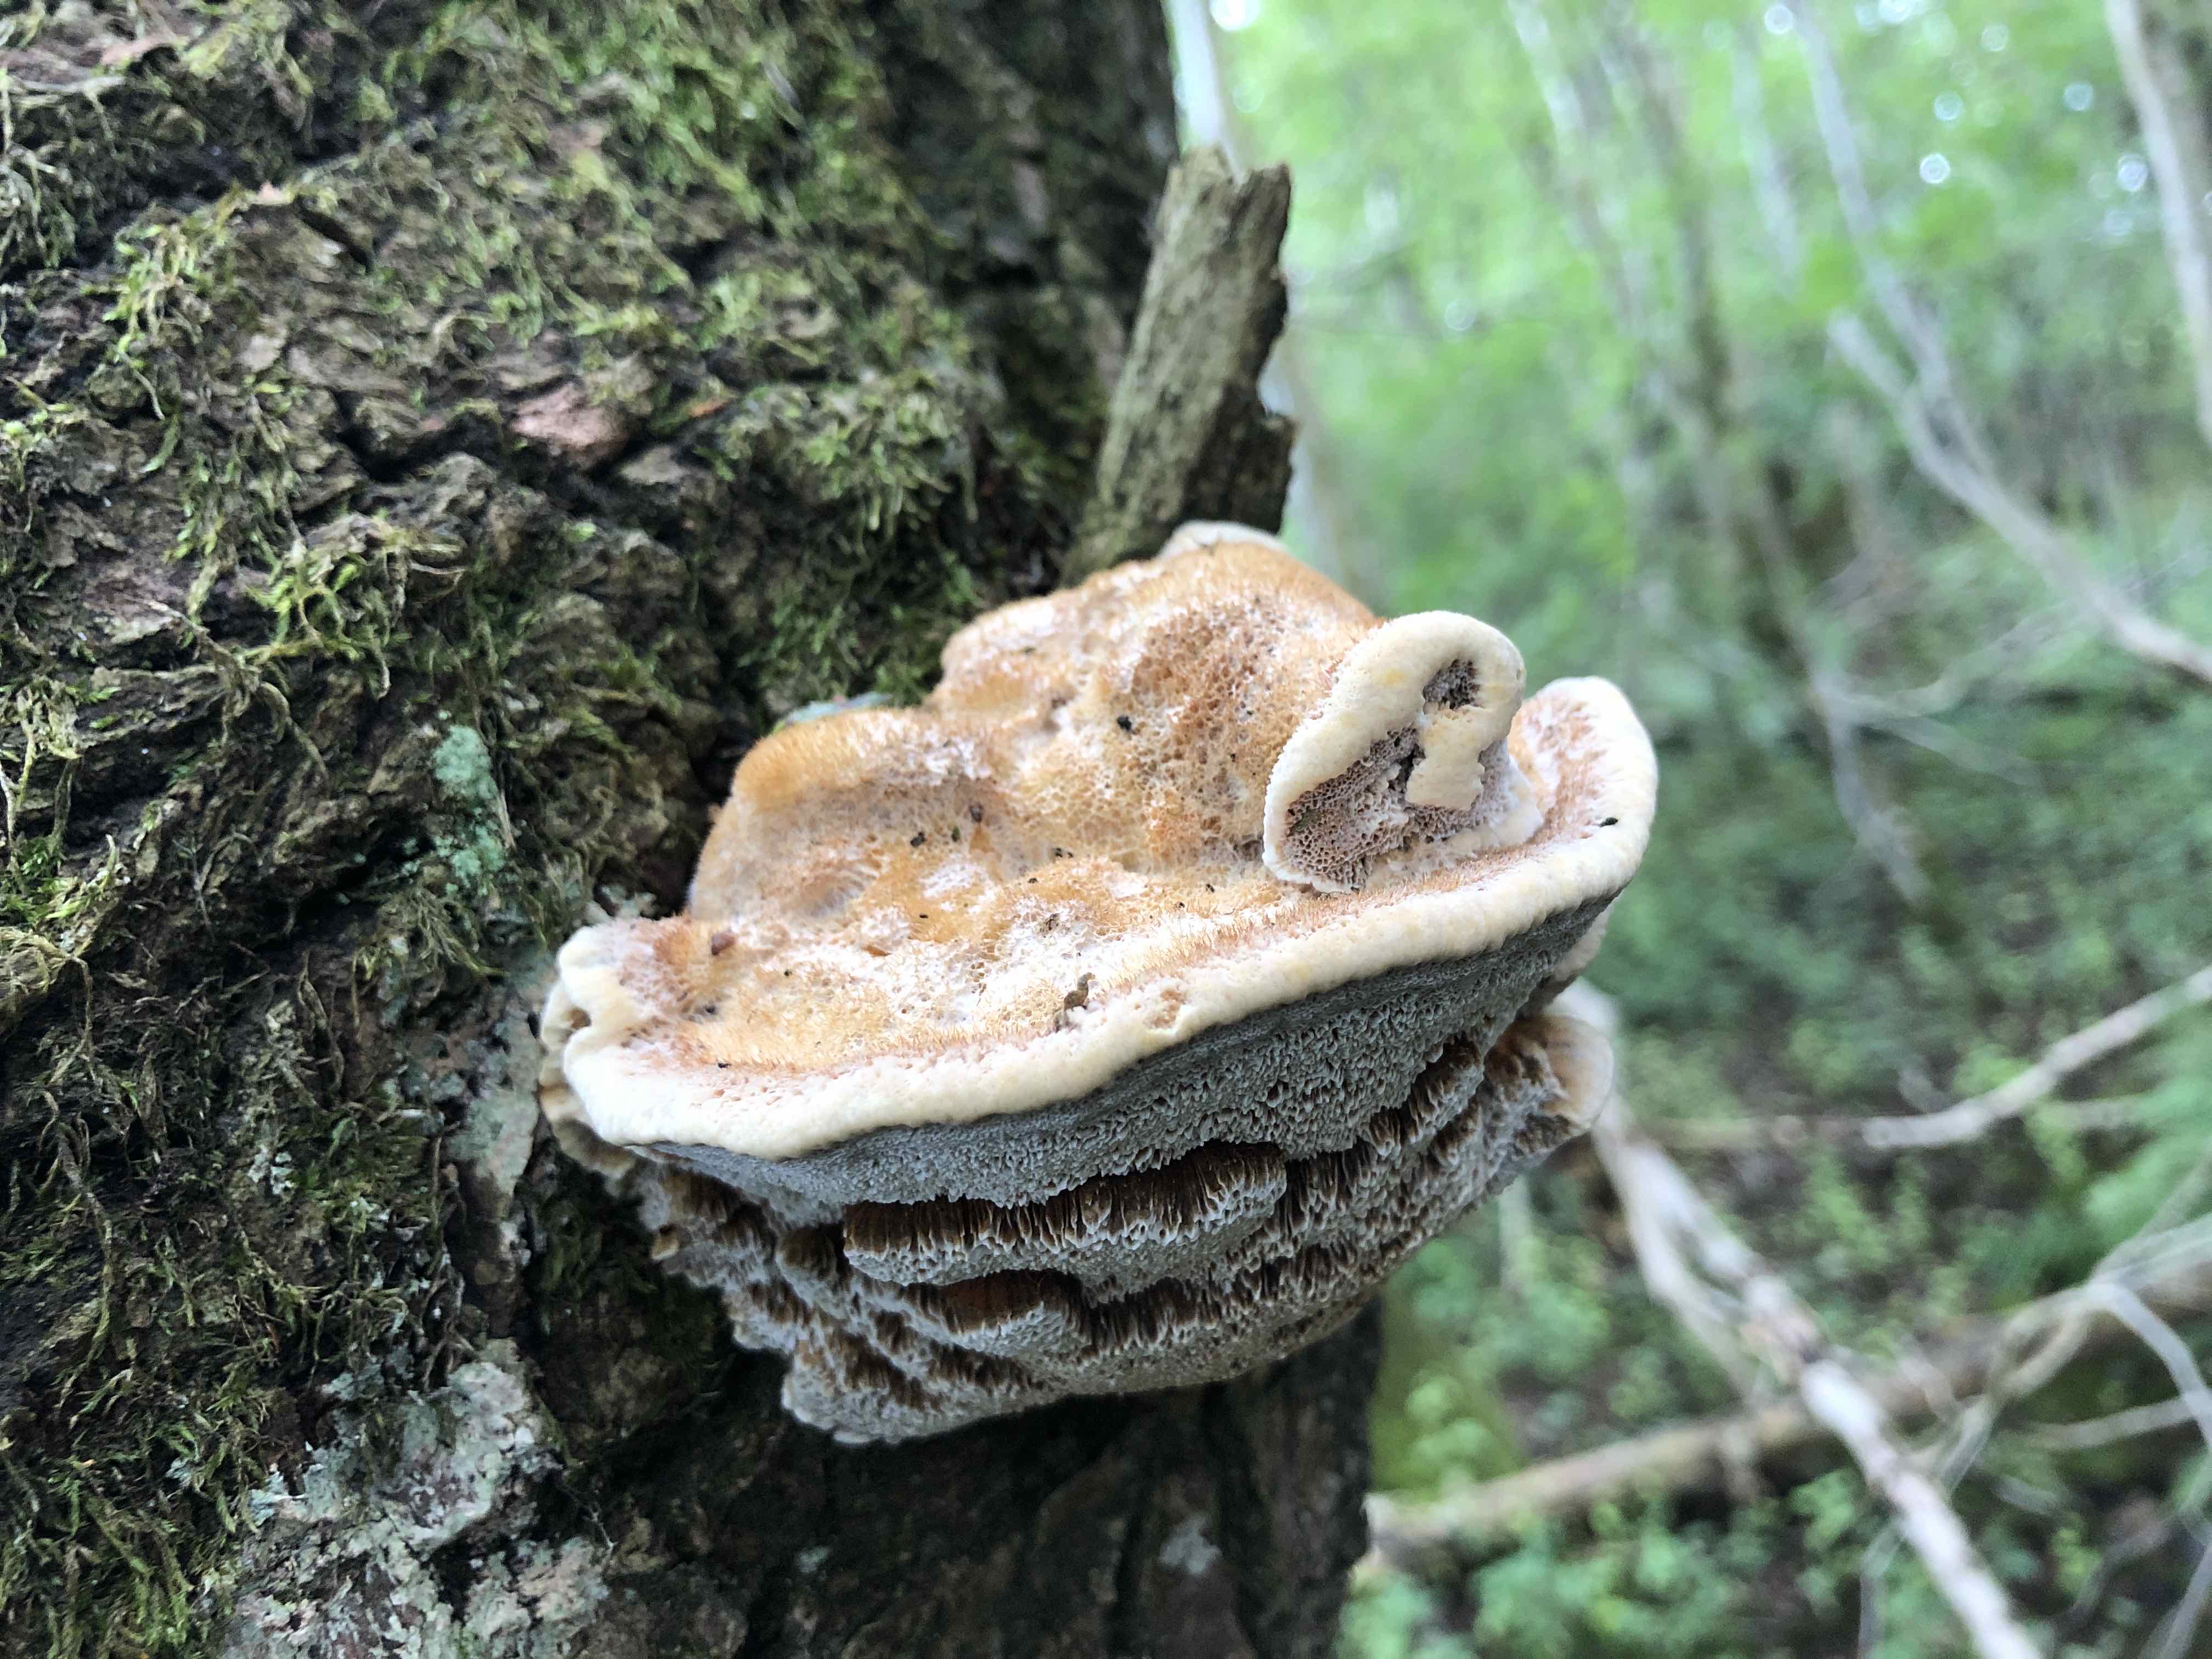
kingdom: Fungi
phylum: Basidiomycota
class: Agaricomycetes
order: Hymenochaetales
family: Hymenochaetaceae
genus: Inocutis
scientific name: Inocutis rheades
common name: ræve-spejlporesvamp
